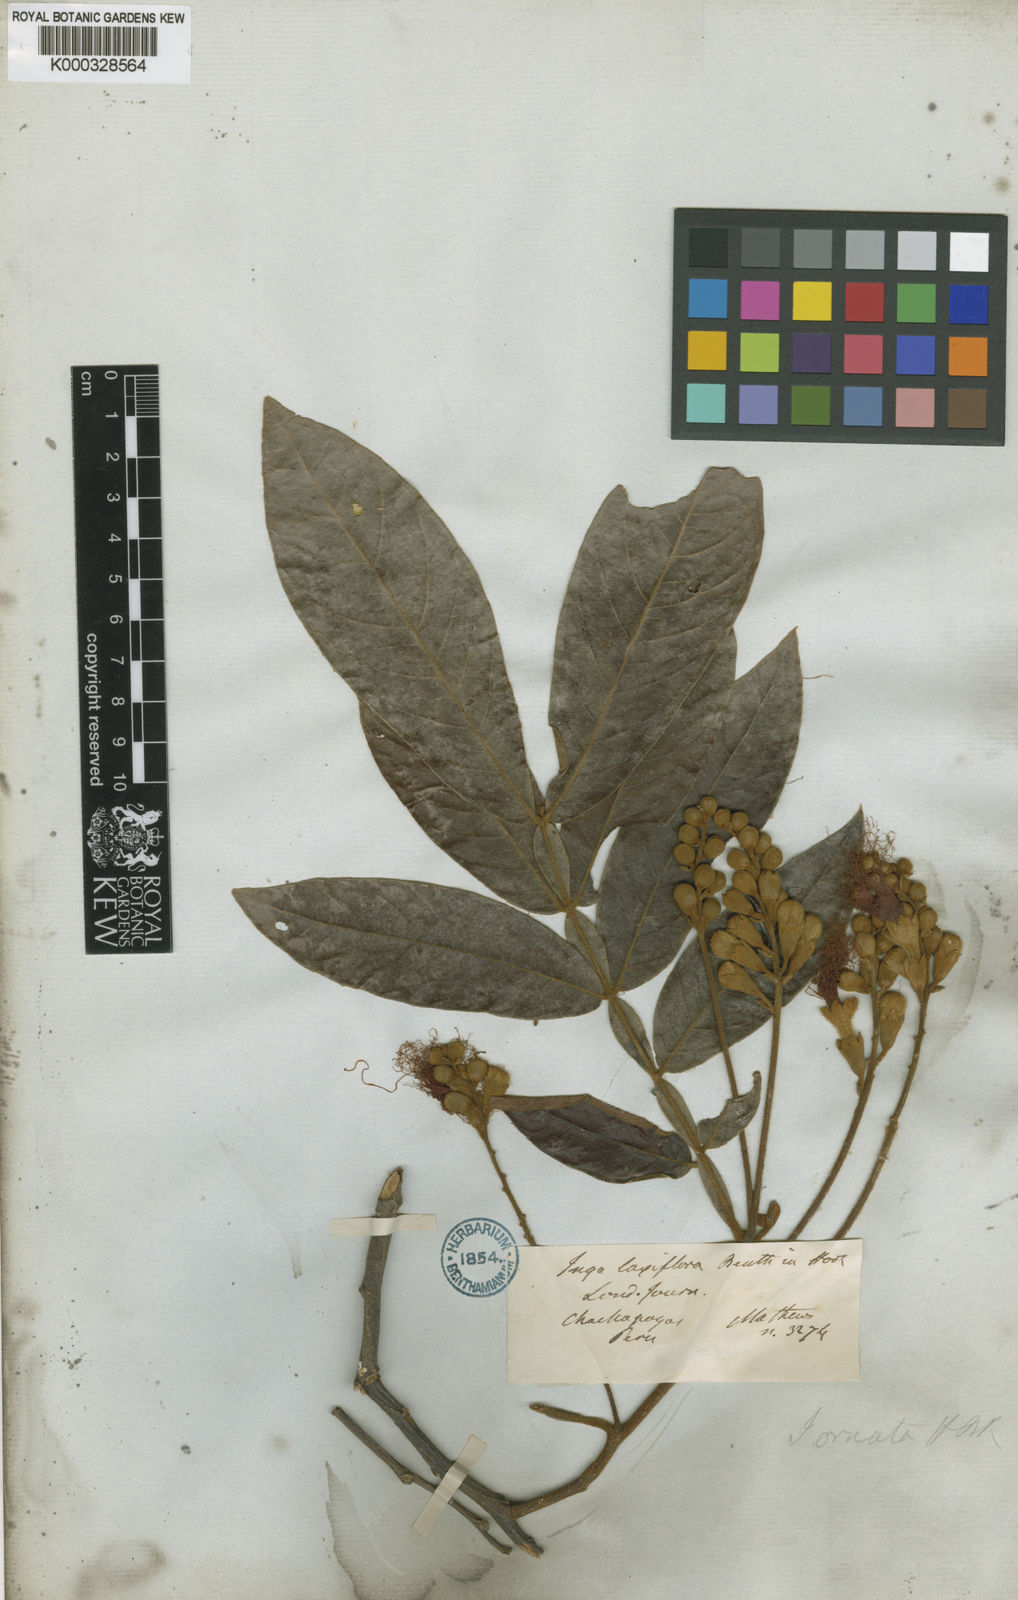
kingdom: Plantae
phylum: Tracheophyta
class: Magnoliopsida
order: Fabales
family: Fabaceae
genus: Inga
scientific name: Inga ingoides
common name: Spanish ash
